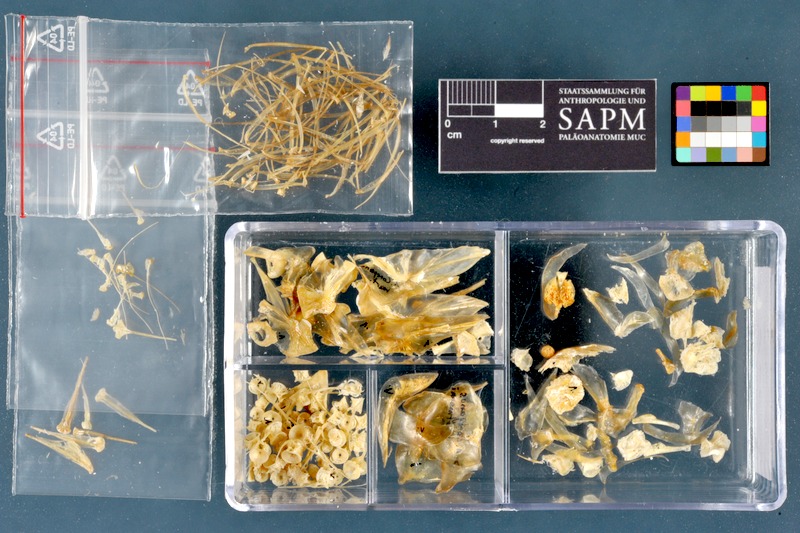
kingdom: Animalia
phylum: Chordata
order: Salmoniformes
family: Salmonidae
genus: Coregonus
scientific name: Coregonus wartmanni
